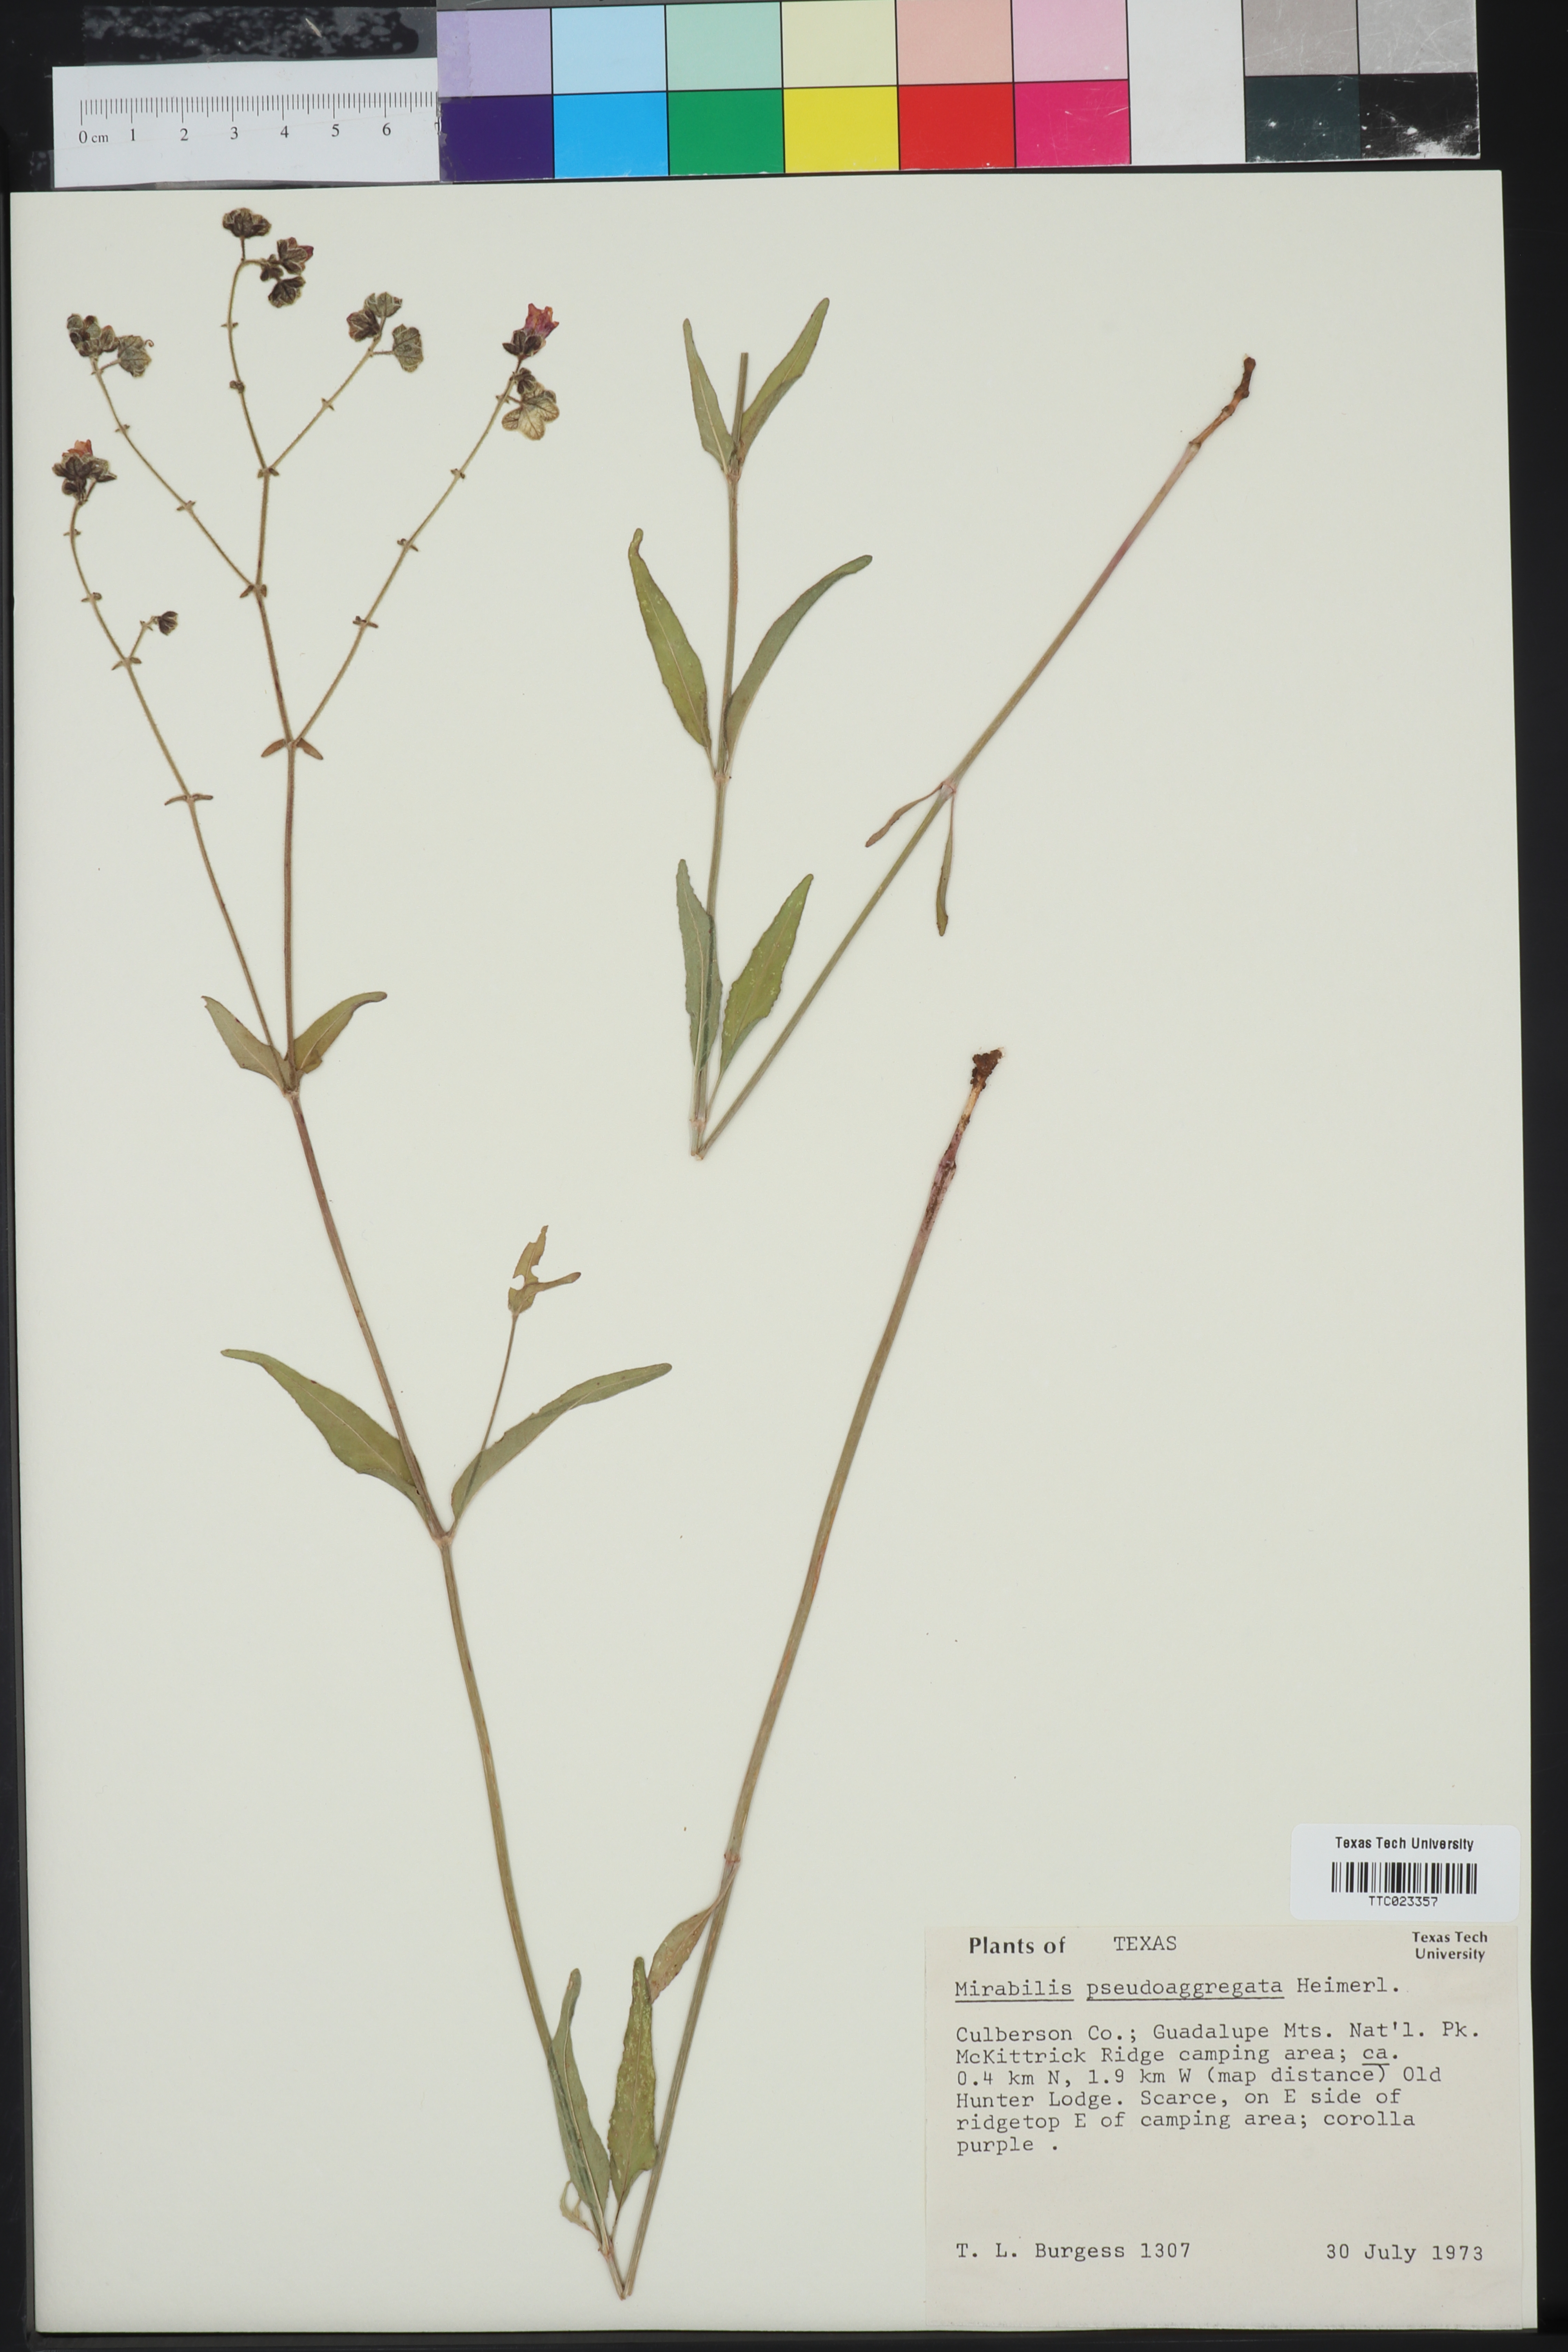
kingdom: Plantae
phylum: Tracheophyta
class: Magnoliopsida
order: Caryophyllales
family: Nyctaginaceae
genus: Mirabilis
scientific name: Mirabilis albida
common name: Hairy four-o'clock
